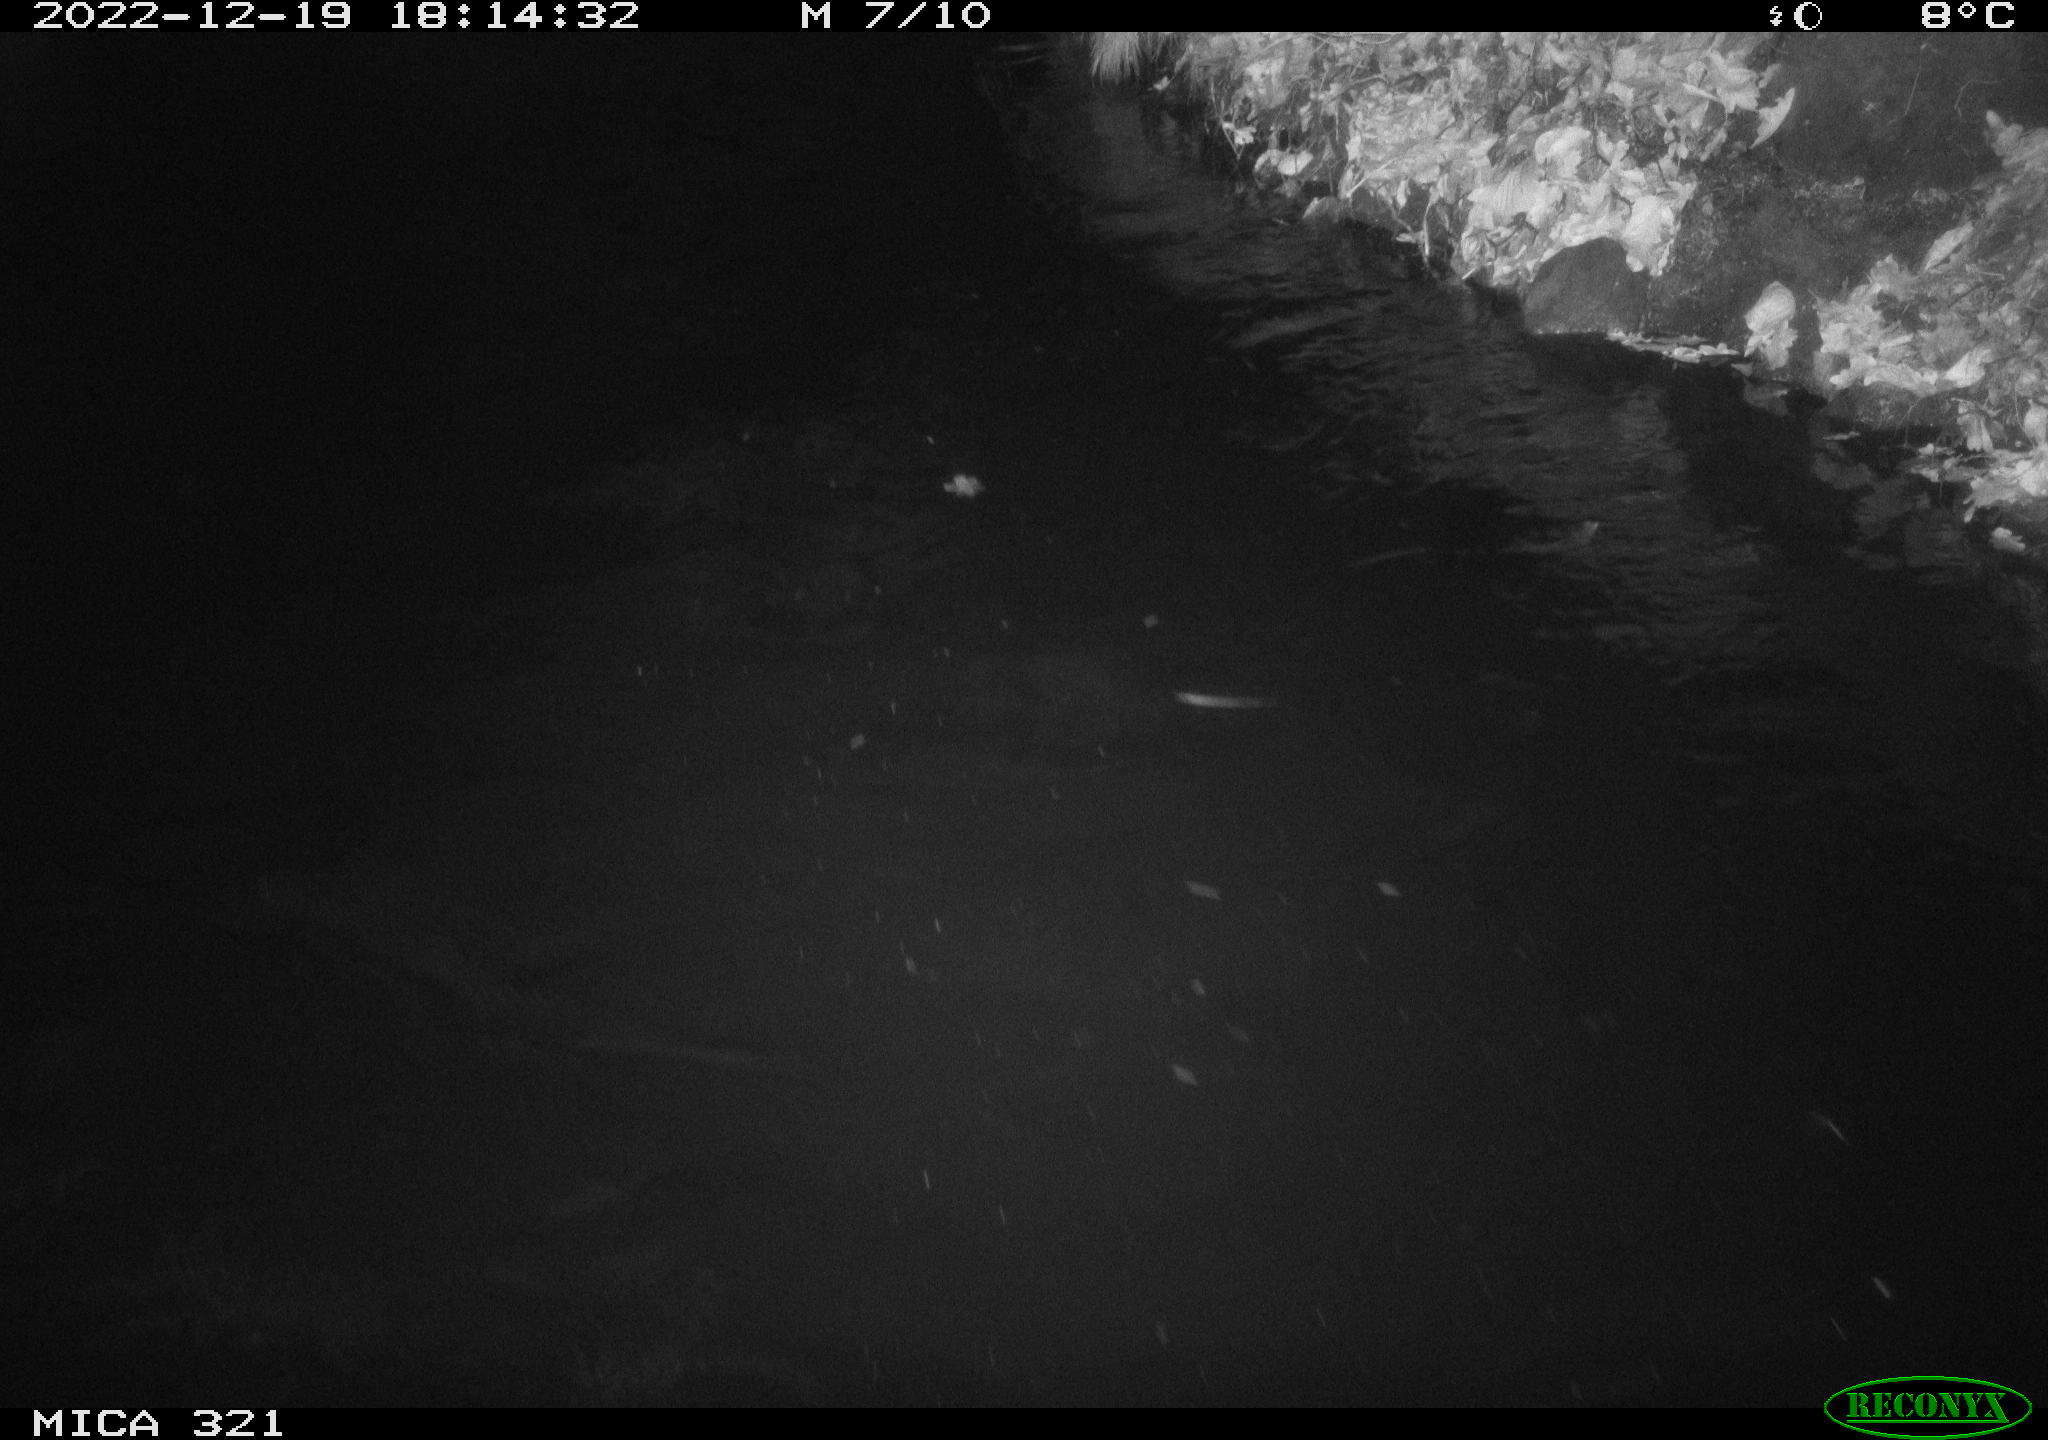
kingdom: Animalia
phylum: Chordata
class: Aves
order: Anseriformes
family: Anatidae
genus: Anas
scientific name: Anas
